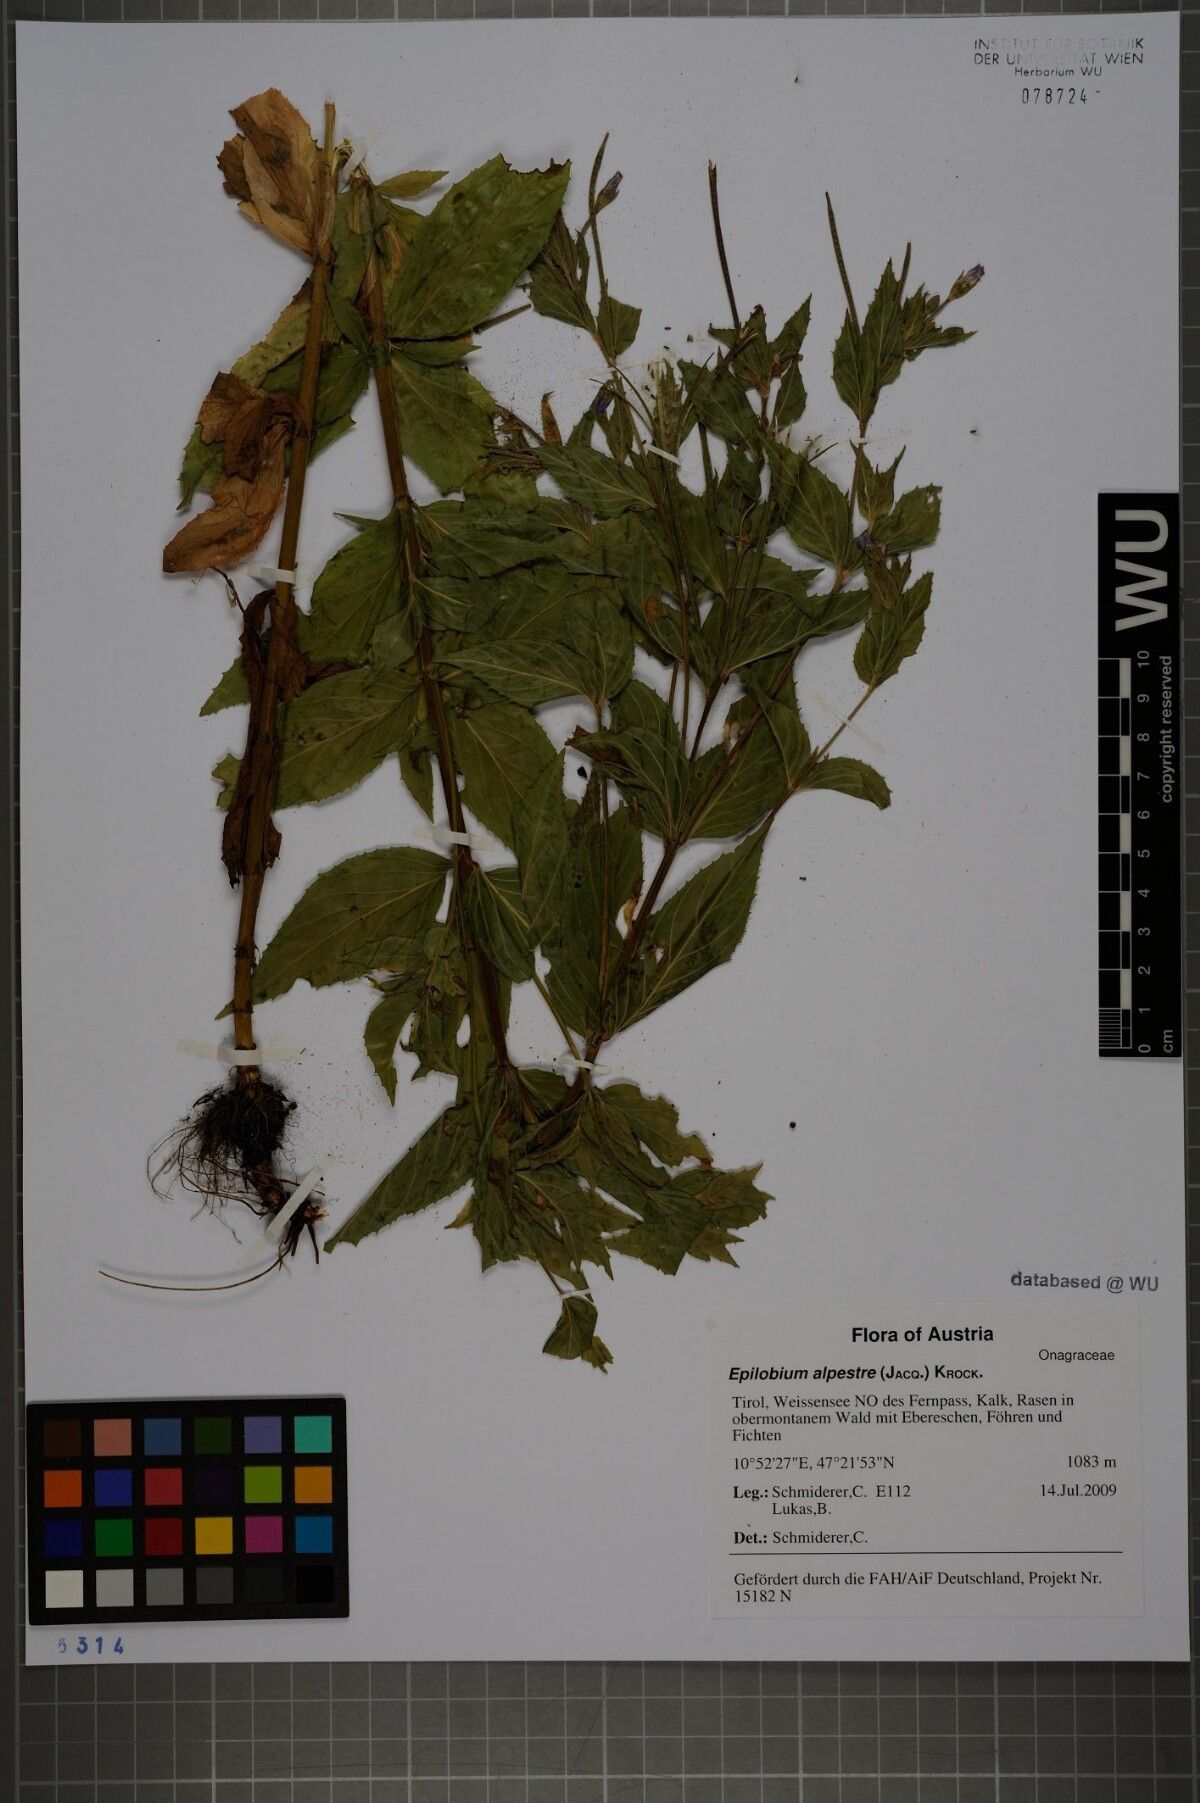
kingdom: Plantae
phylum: Tracheophyta
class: Magnoliopsida
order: Myrtales
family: Onagraceae
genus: Epilobium
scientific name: Epilobium alpestre
